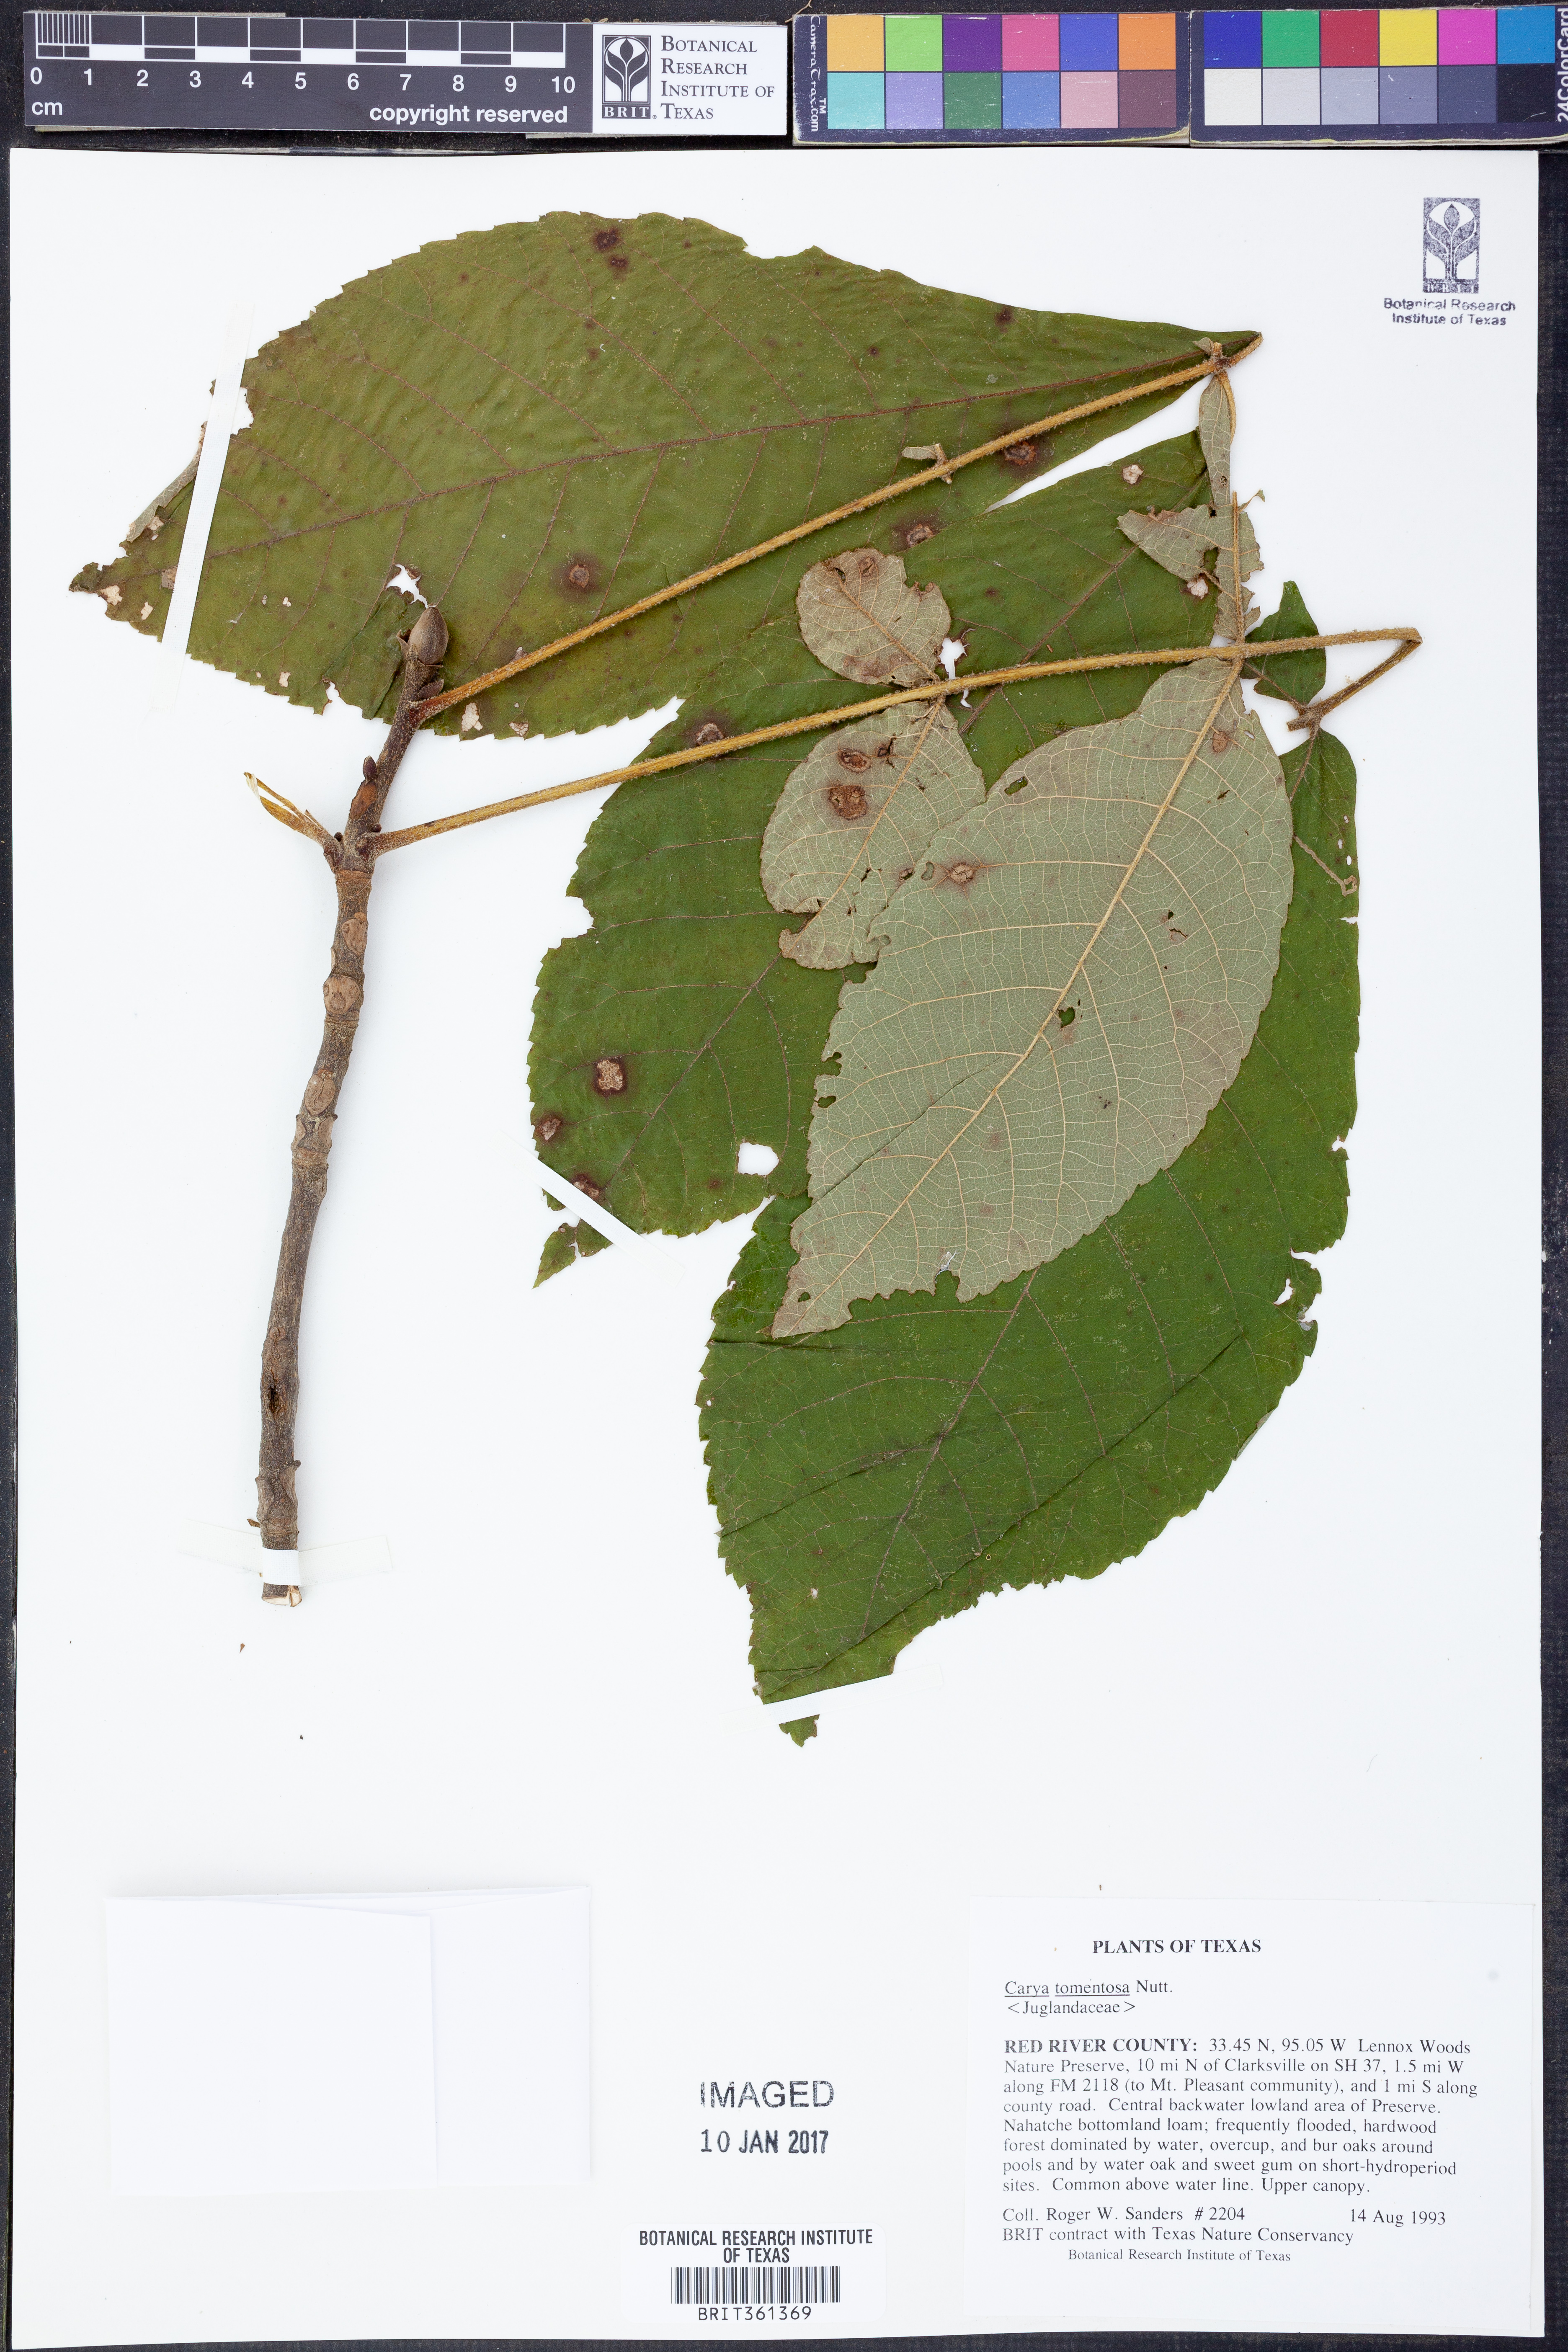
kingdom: Plantae
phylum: Tracheophyta
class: Magnoliopsida
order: Fagales
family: Juglandaceae
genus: Carya
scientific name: Carya alba
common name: Mockernut hickory
